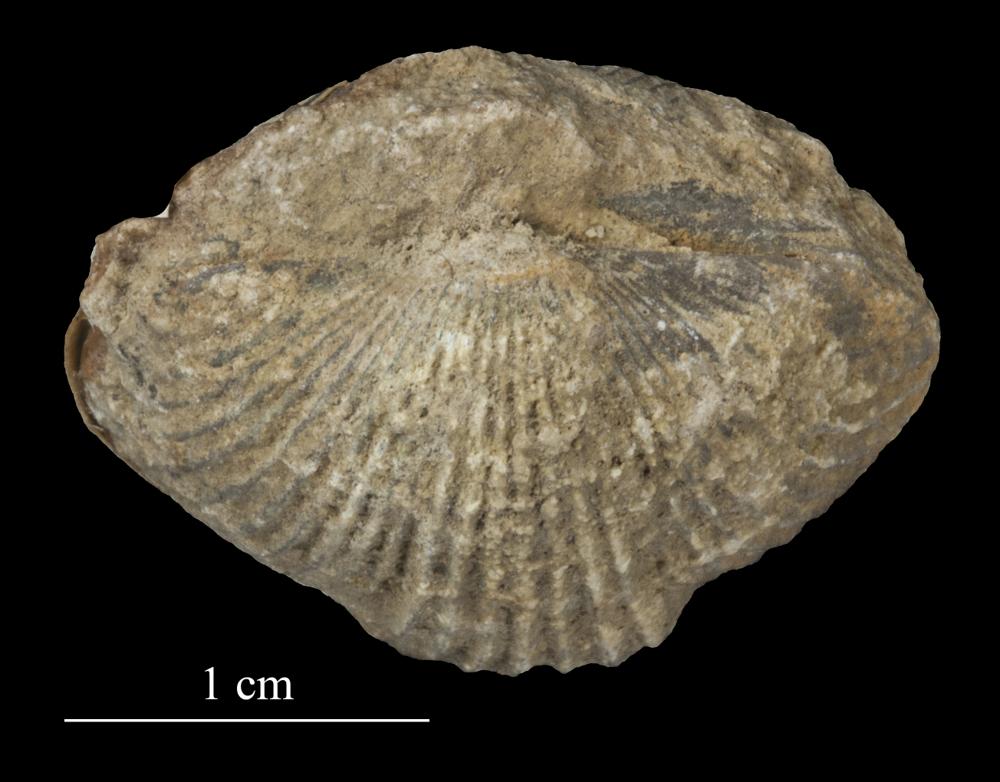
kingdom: Animalia
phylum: Brachiopoda
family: Strophomenidae
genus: Tallinnites
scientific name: Tallinnites Oepikina imbrexoidea
